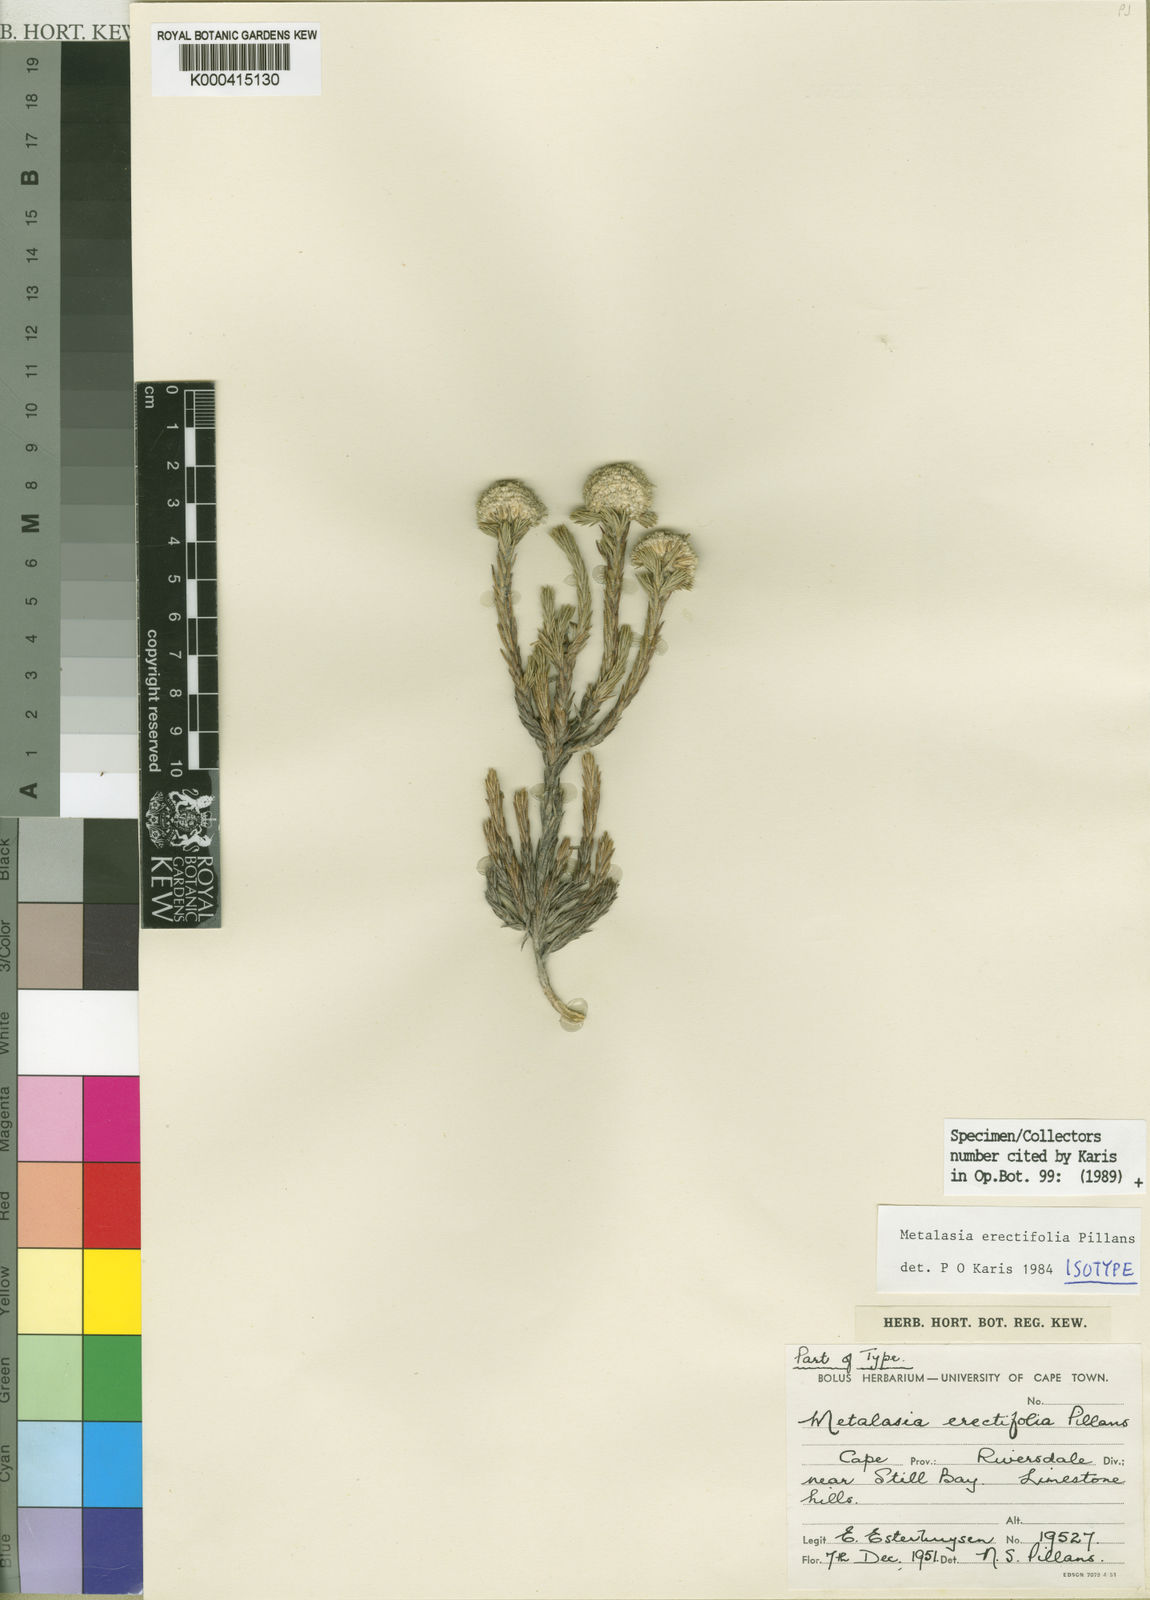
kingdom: Plantae
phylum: Tracheophyta
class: Magnoliopsida
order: Asterales
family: Asteraceae
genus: Metalasia
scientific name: Metalasia erectifolia
